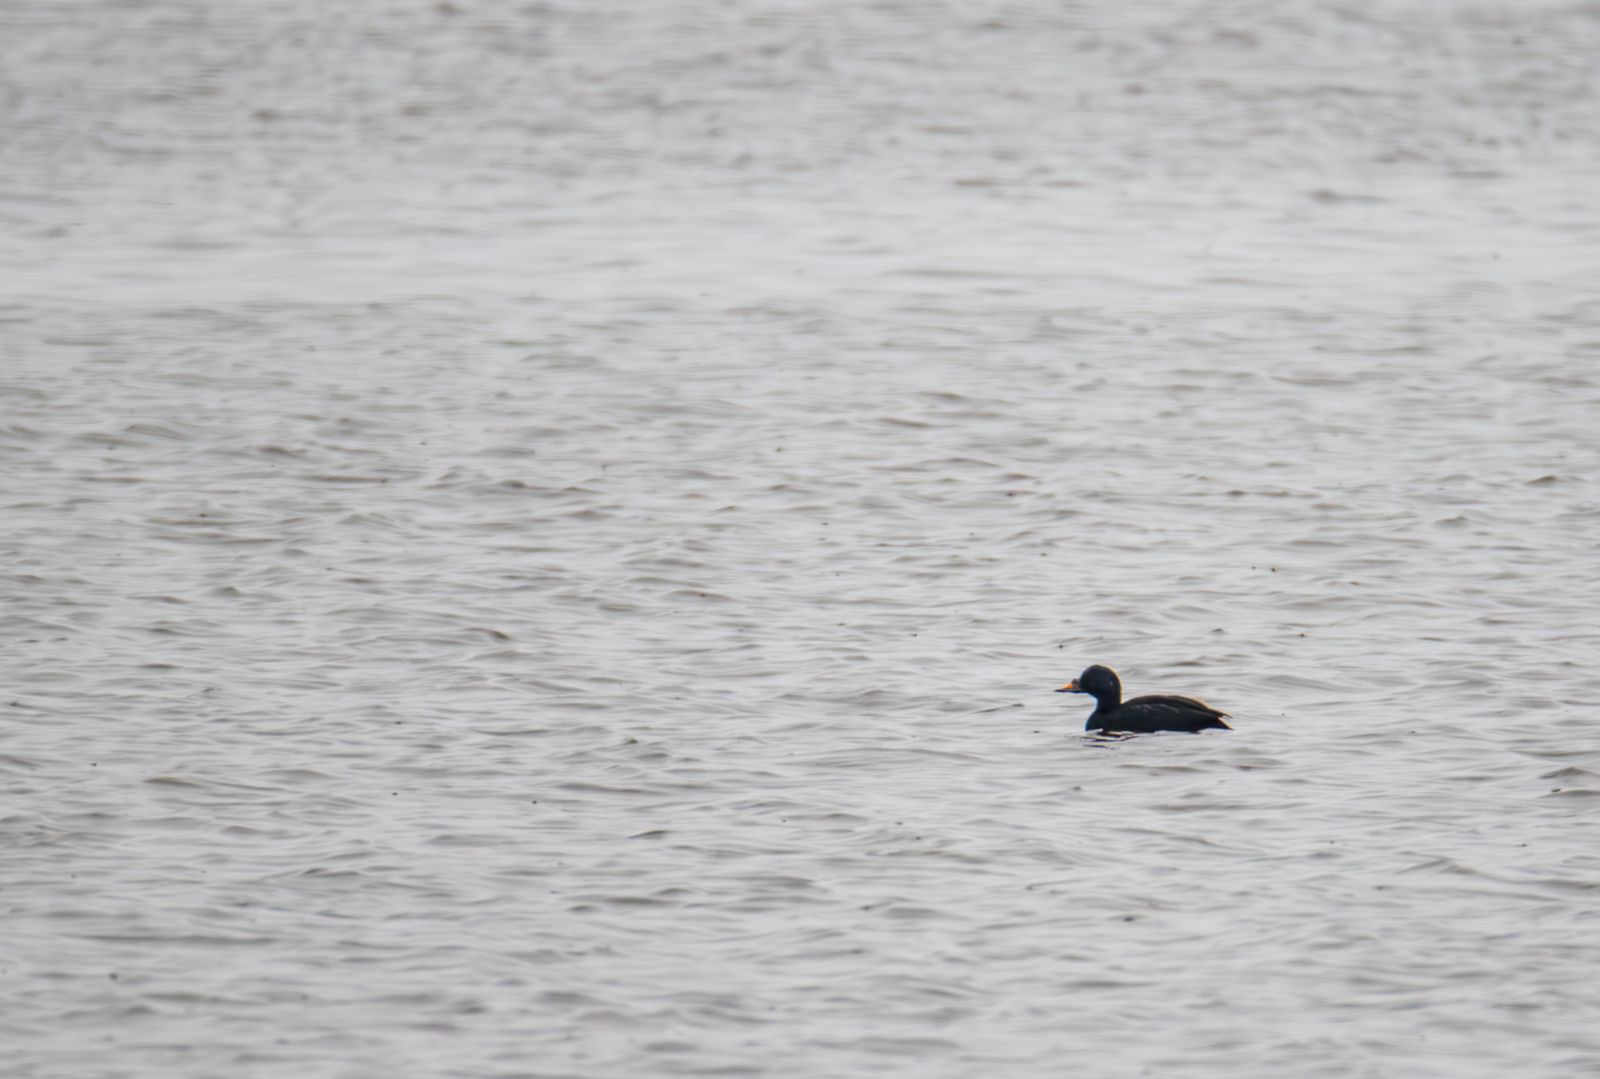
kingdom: Animalia
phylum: Chordata
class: Aves
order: Anseriformes
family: Anatidae
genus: Melanitta
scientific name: Melanitta nigra
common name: Common scoter
